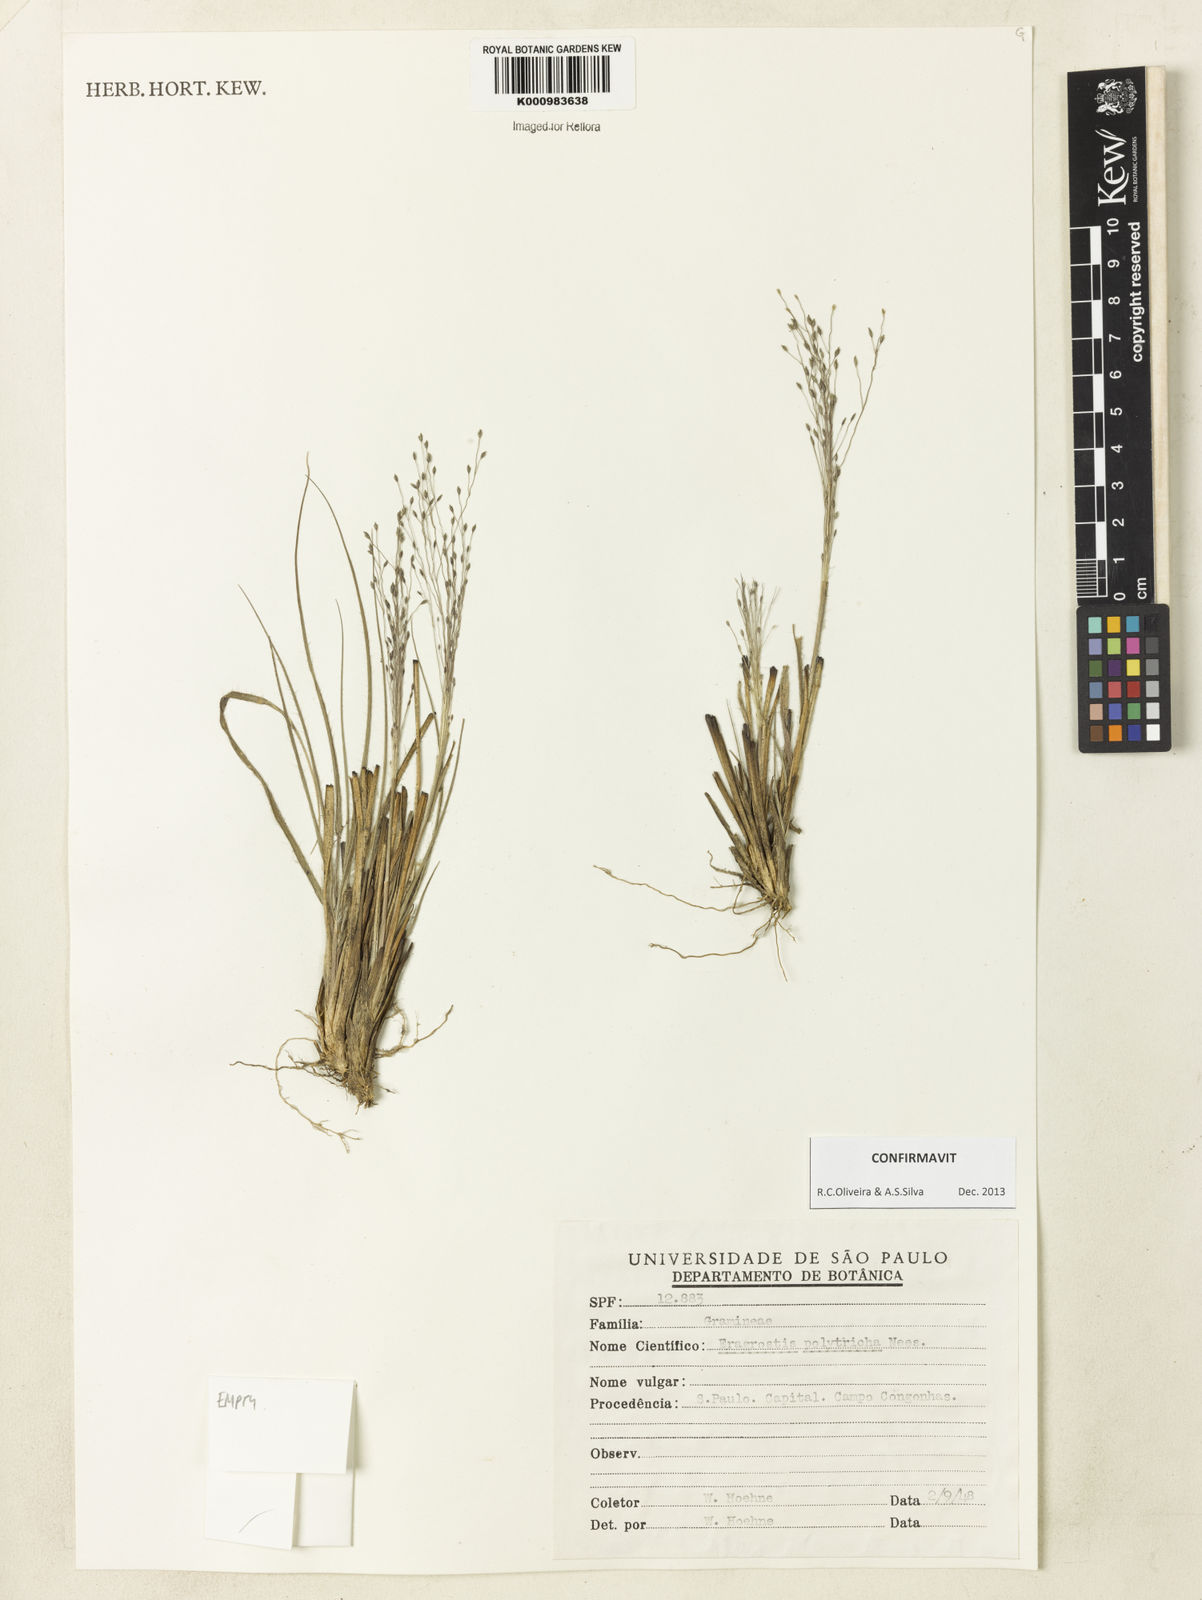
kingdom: Plantae
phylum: Tracheophyta
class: Liliopsida
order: Poales
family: Poaceae
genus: Eragrostis
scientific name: Eragrostis polytricha
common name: Hairy-sheath love grass
